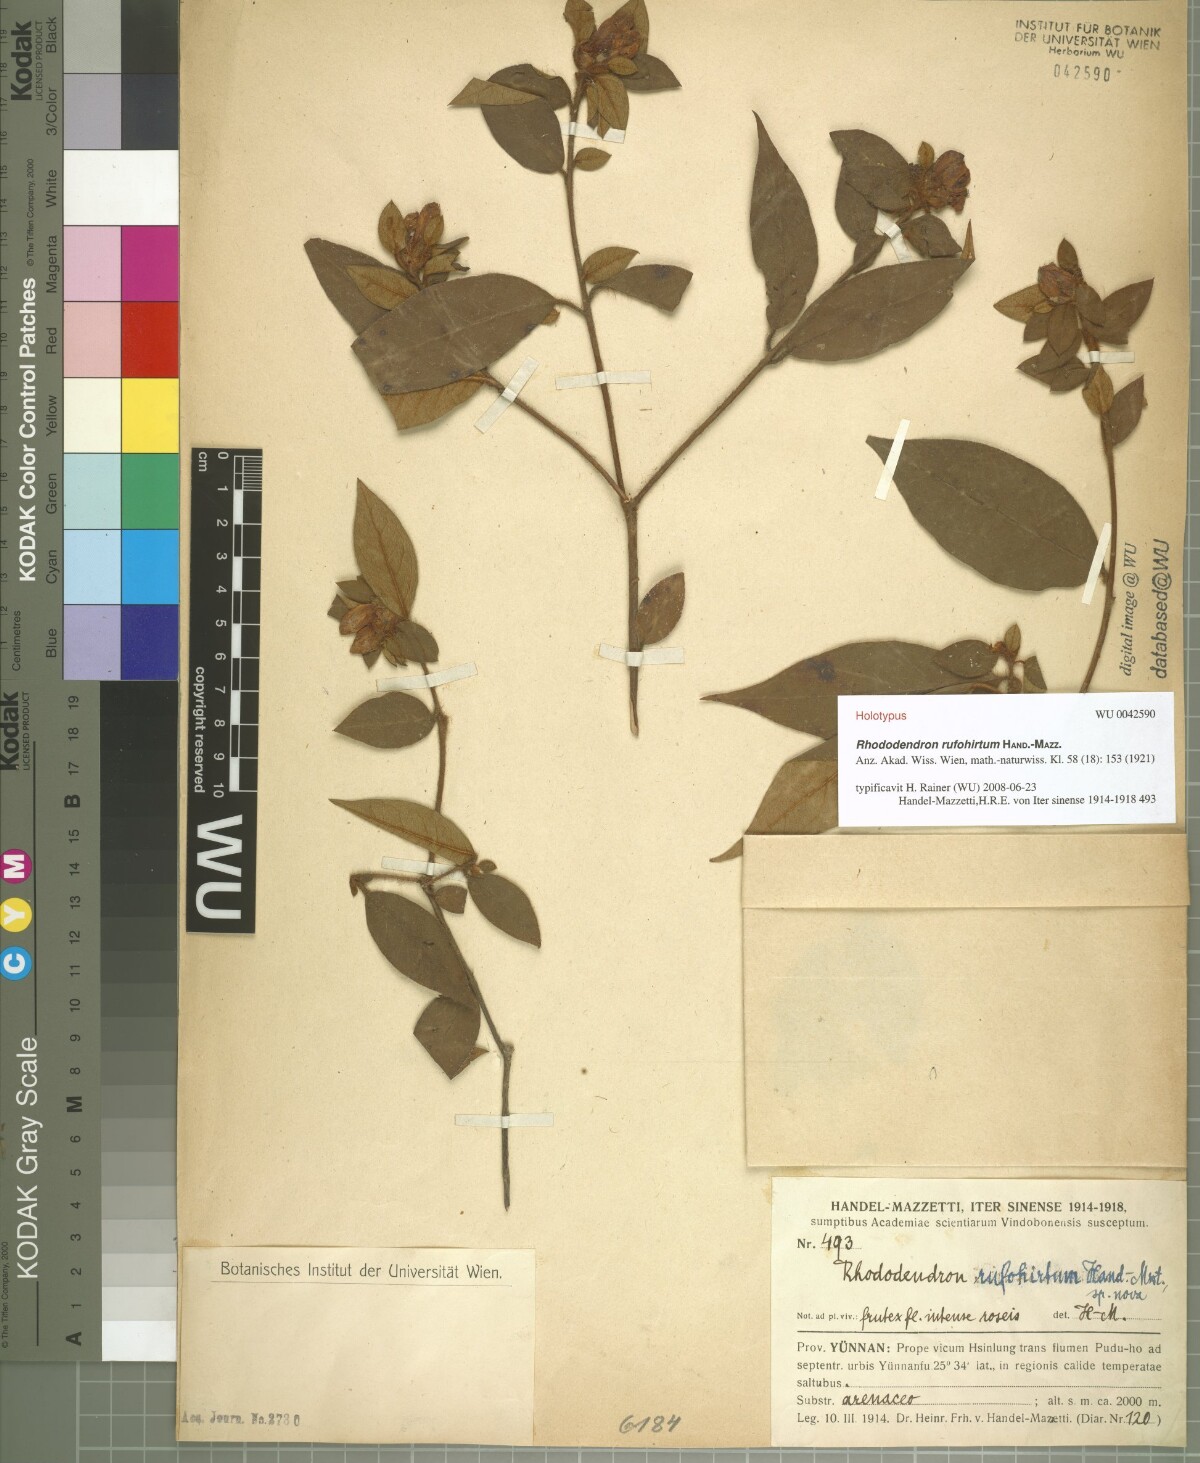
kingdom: Plantae
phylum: Tracheophyta
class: Magnoliopsida
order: Ericales
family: Ericaceae
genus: Rhododendron
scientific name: Rhododendron rufohirtum
